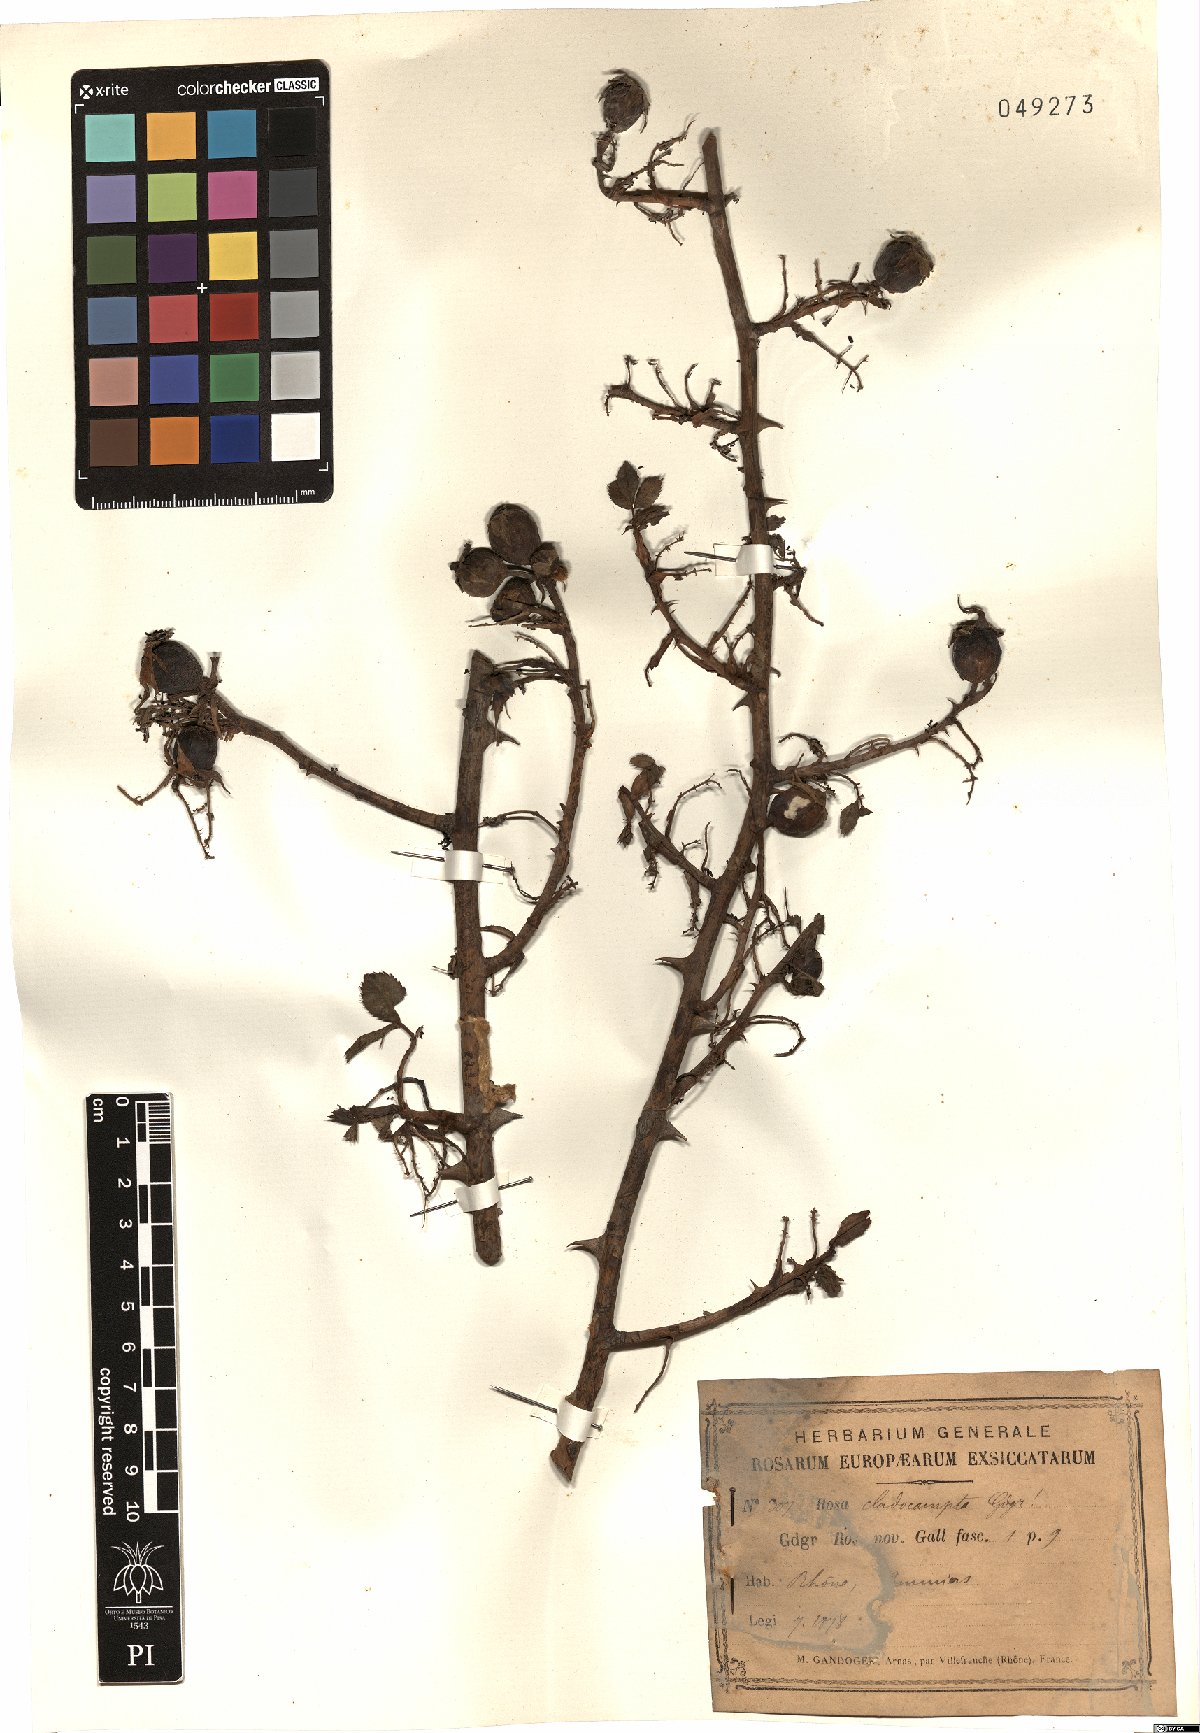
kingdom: Plantae
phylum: Tracheophyta
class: Magnoliopsida
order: Rosales
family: Rosaceae
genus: Rosa
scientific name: Rosa cladocampta
